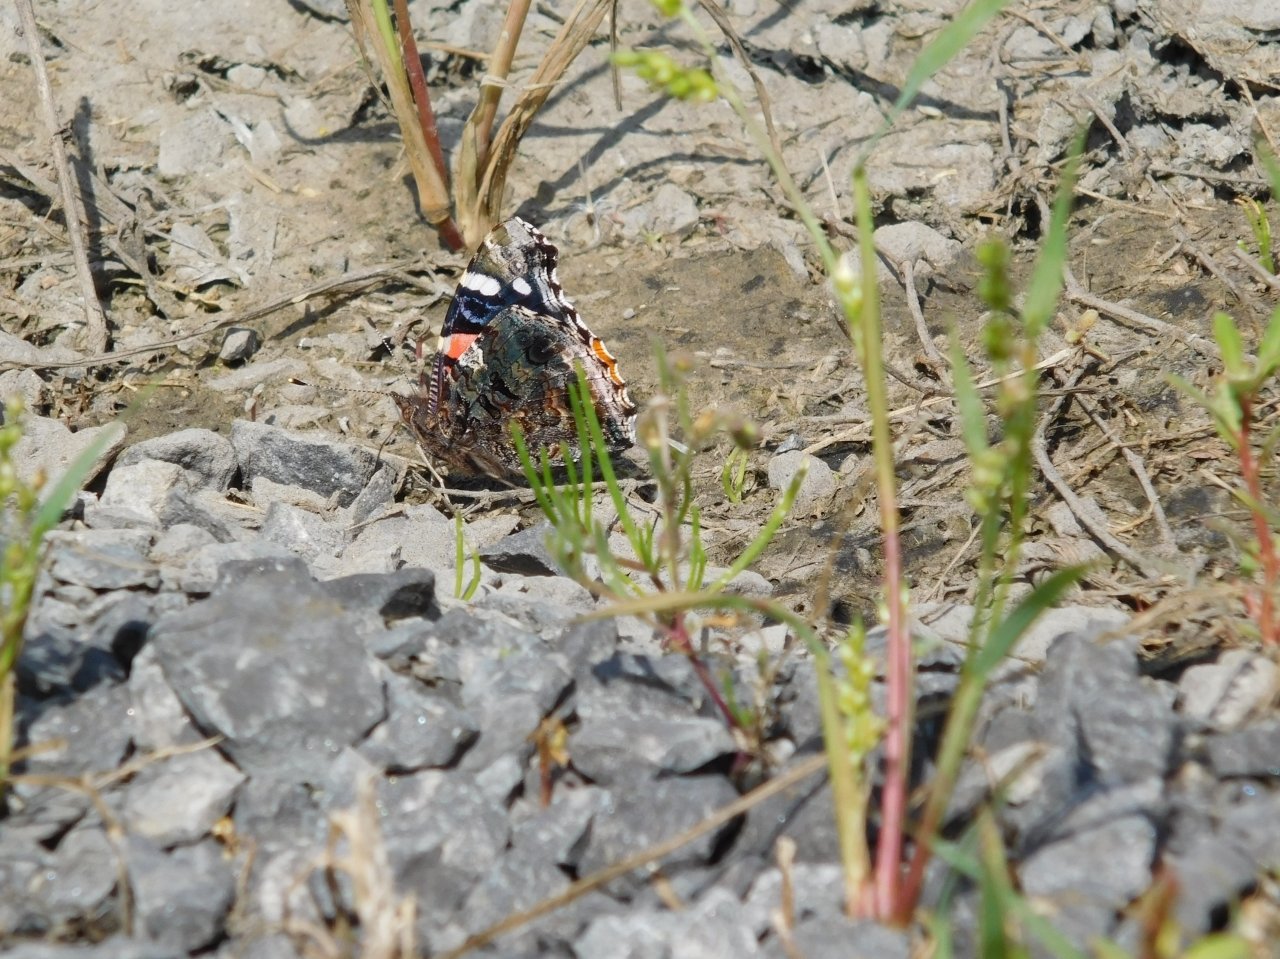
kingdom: Animalia
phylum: Arthropoda
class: Insecta
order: Lepidoptera
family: Nymphalidae
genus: Vanessa
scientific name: Vanessa atalanta
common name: Red Admiral
